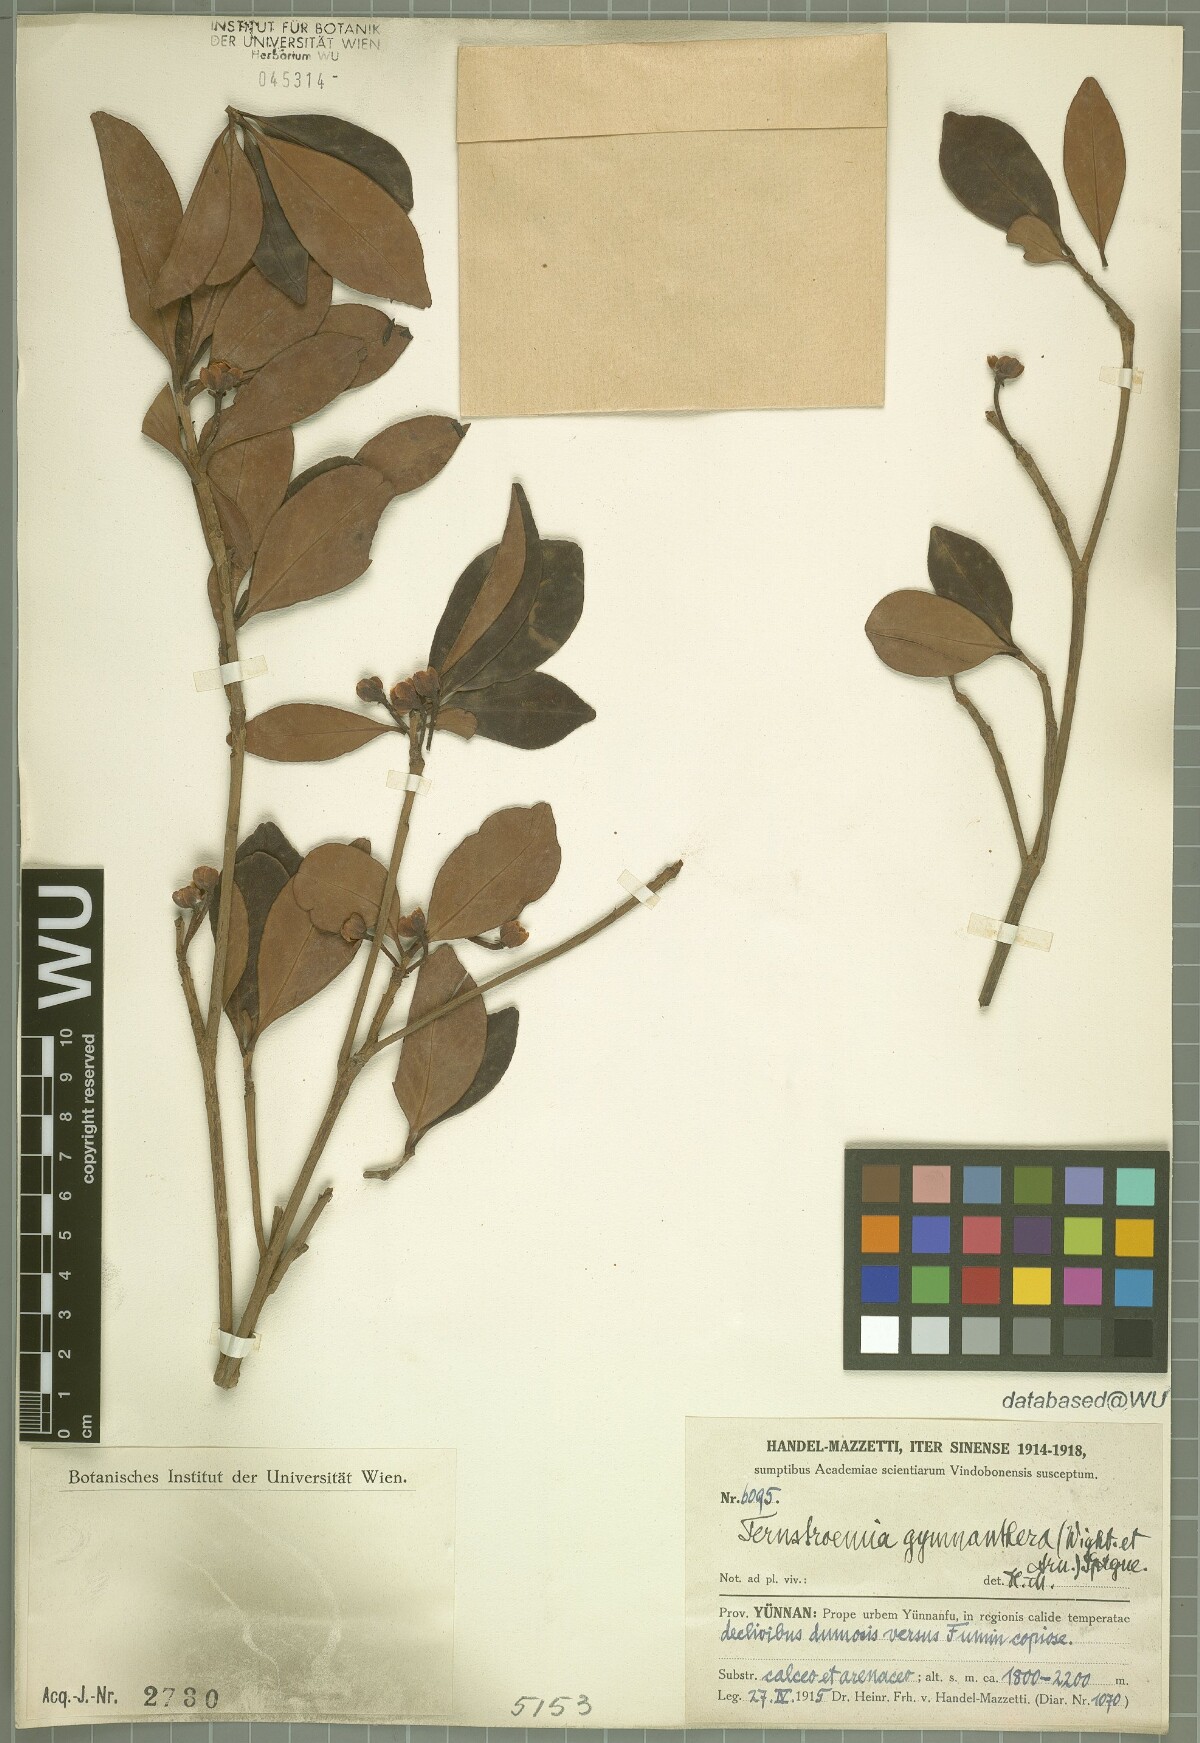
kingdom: Plantae
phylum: Tracheophyta
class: Magnoliopsida
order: Ericales
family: Pentaphylacaceae
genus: Ternstroemia
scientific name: Ternstroemia gymnanthera
